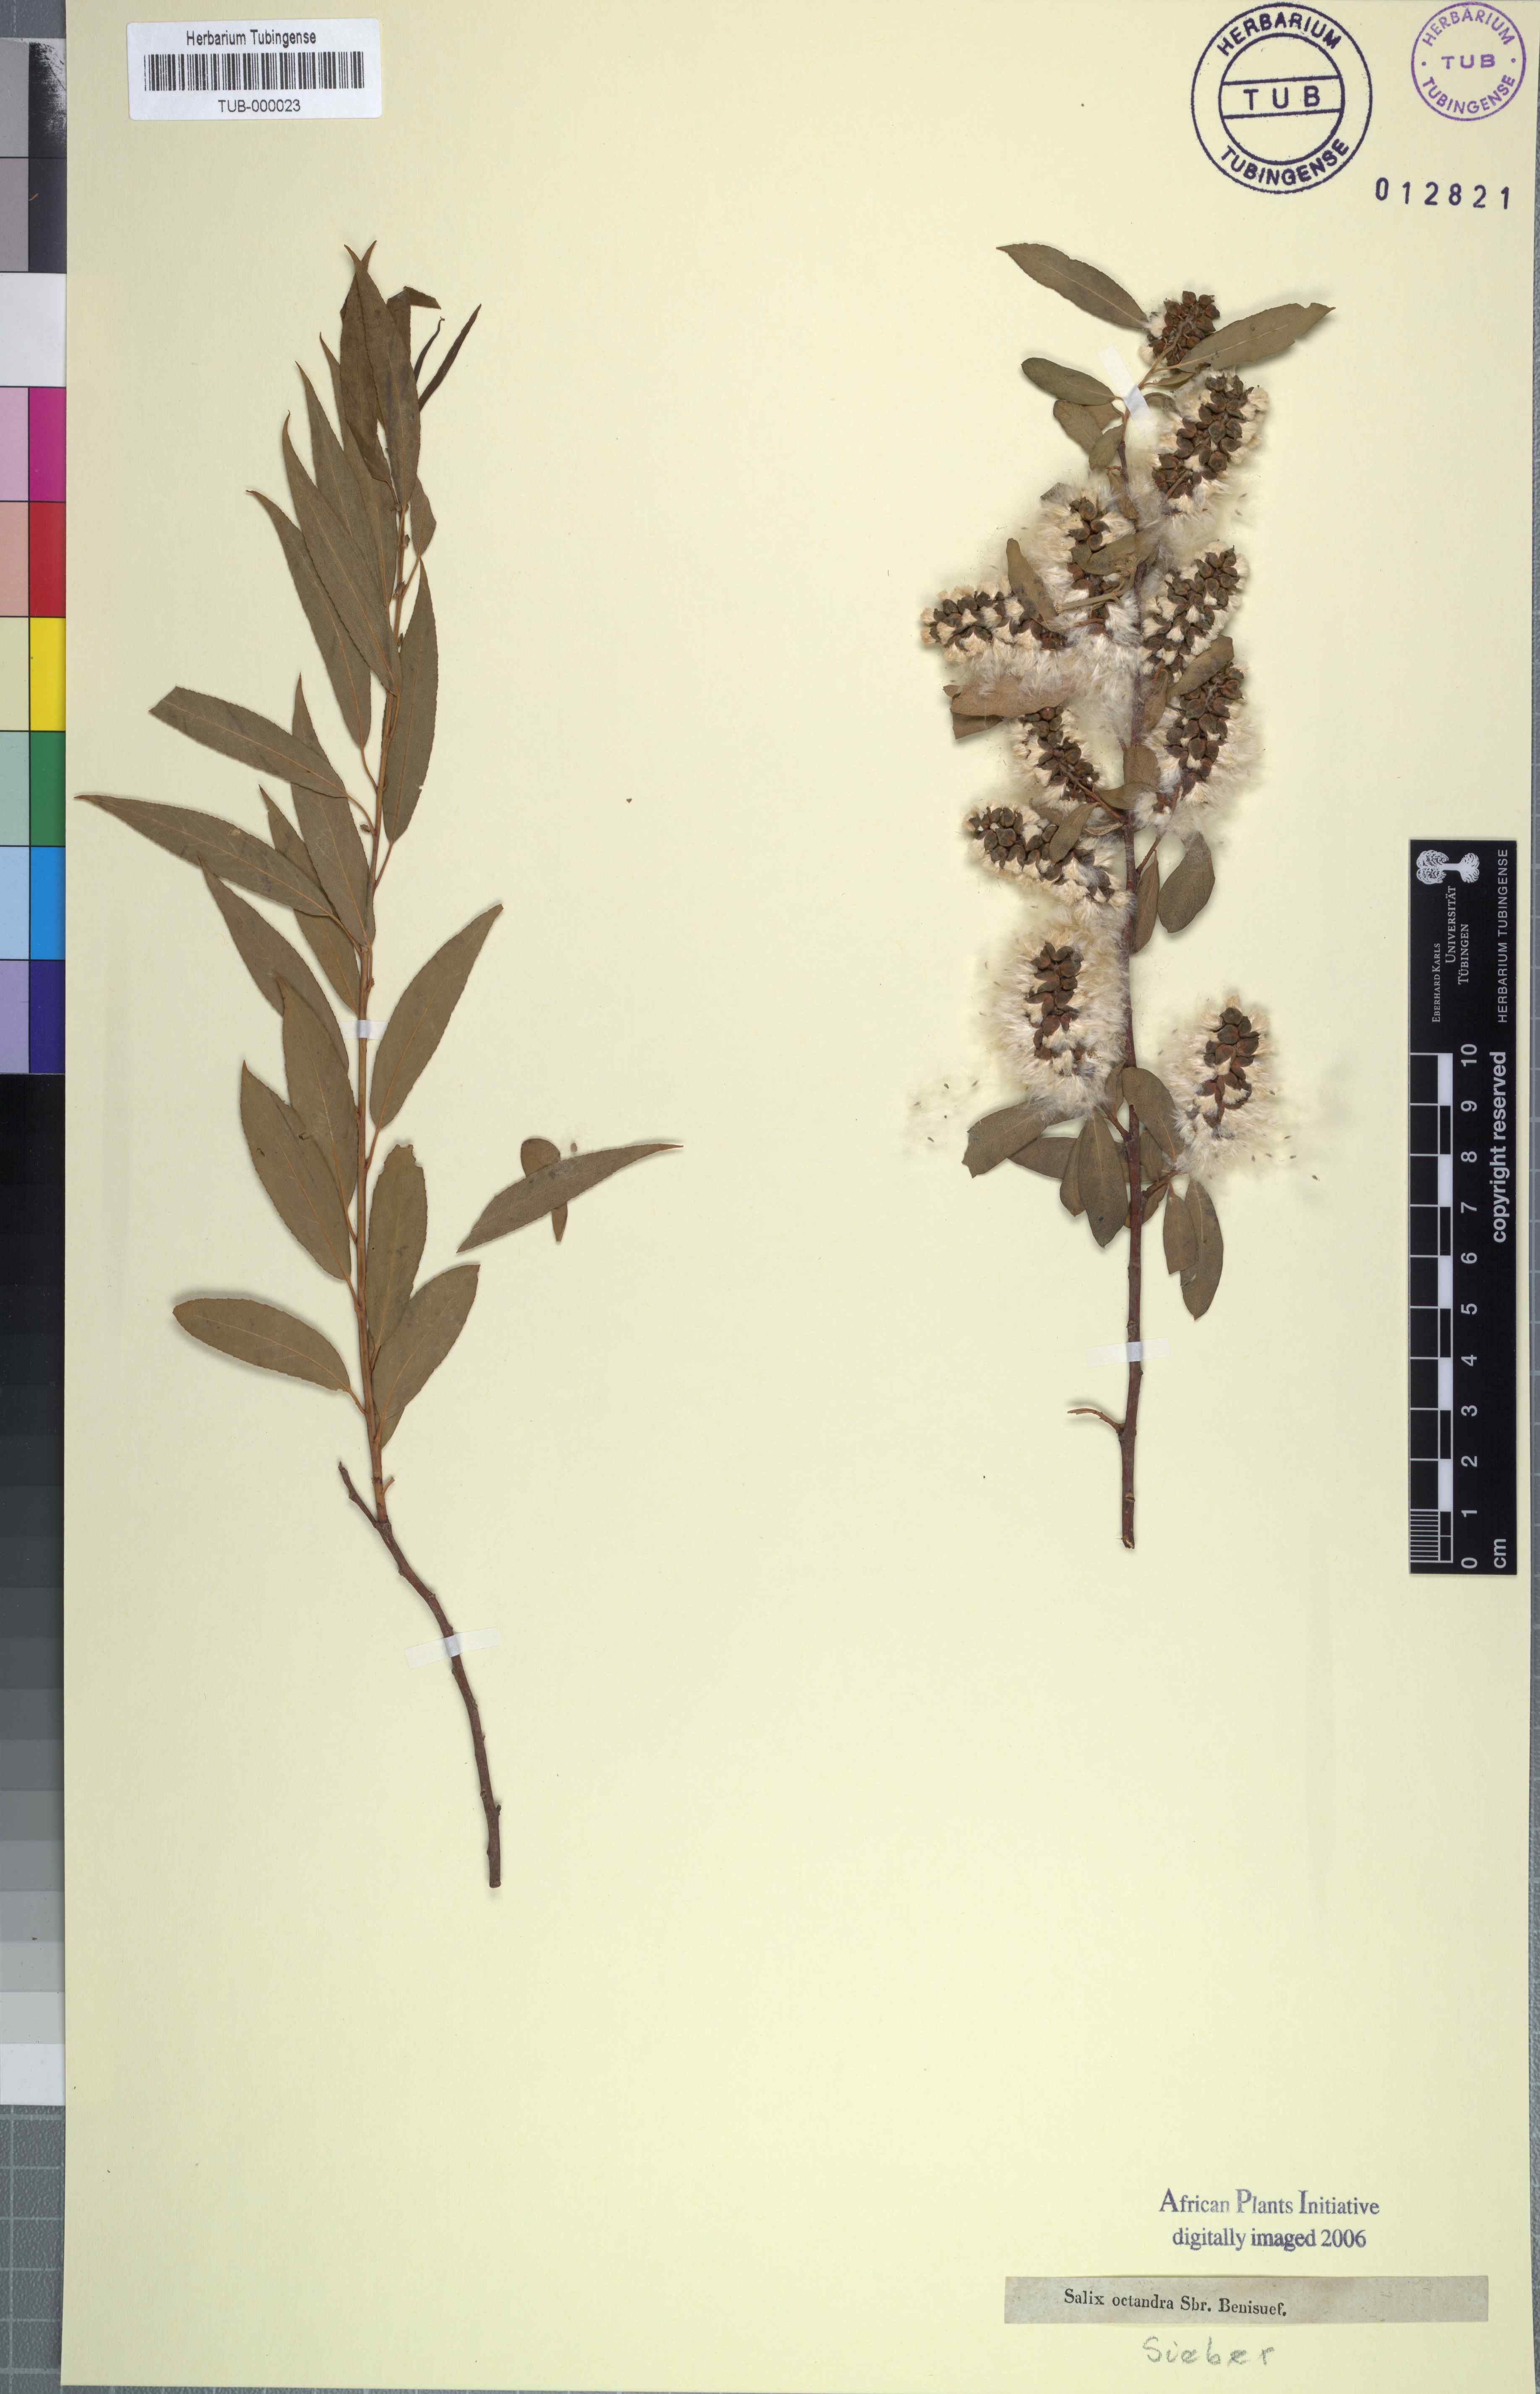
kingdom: Plantae
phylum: Tracheophyta
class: Magnoliopsida
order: Malpighiales
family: Salicaceae
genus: Salix
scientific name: Salix mucronata
